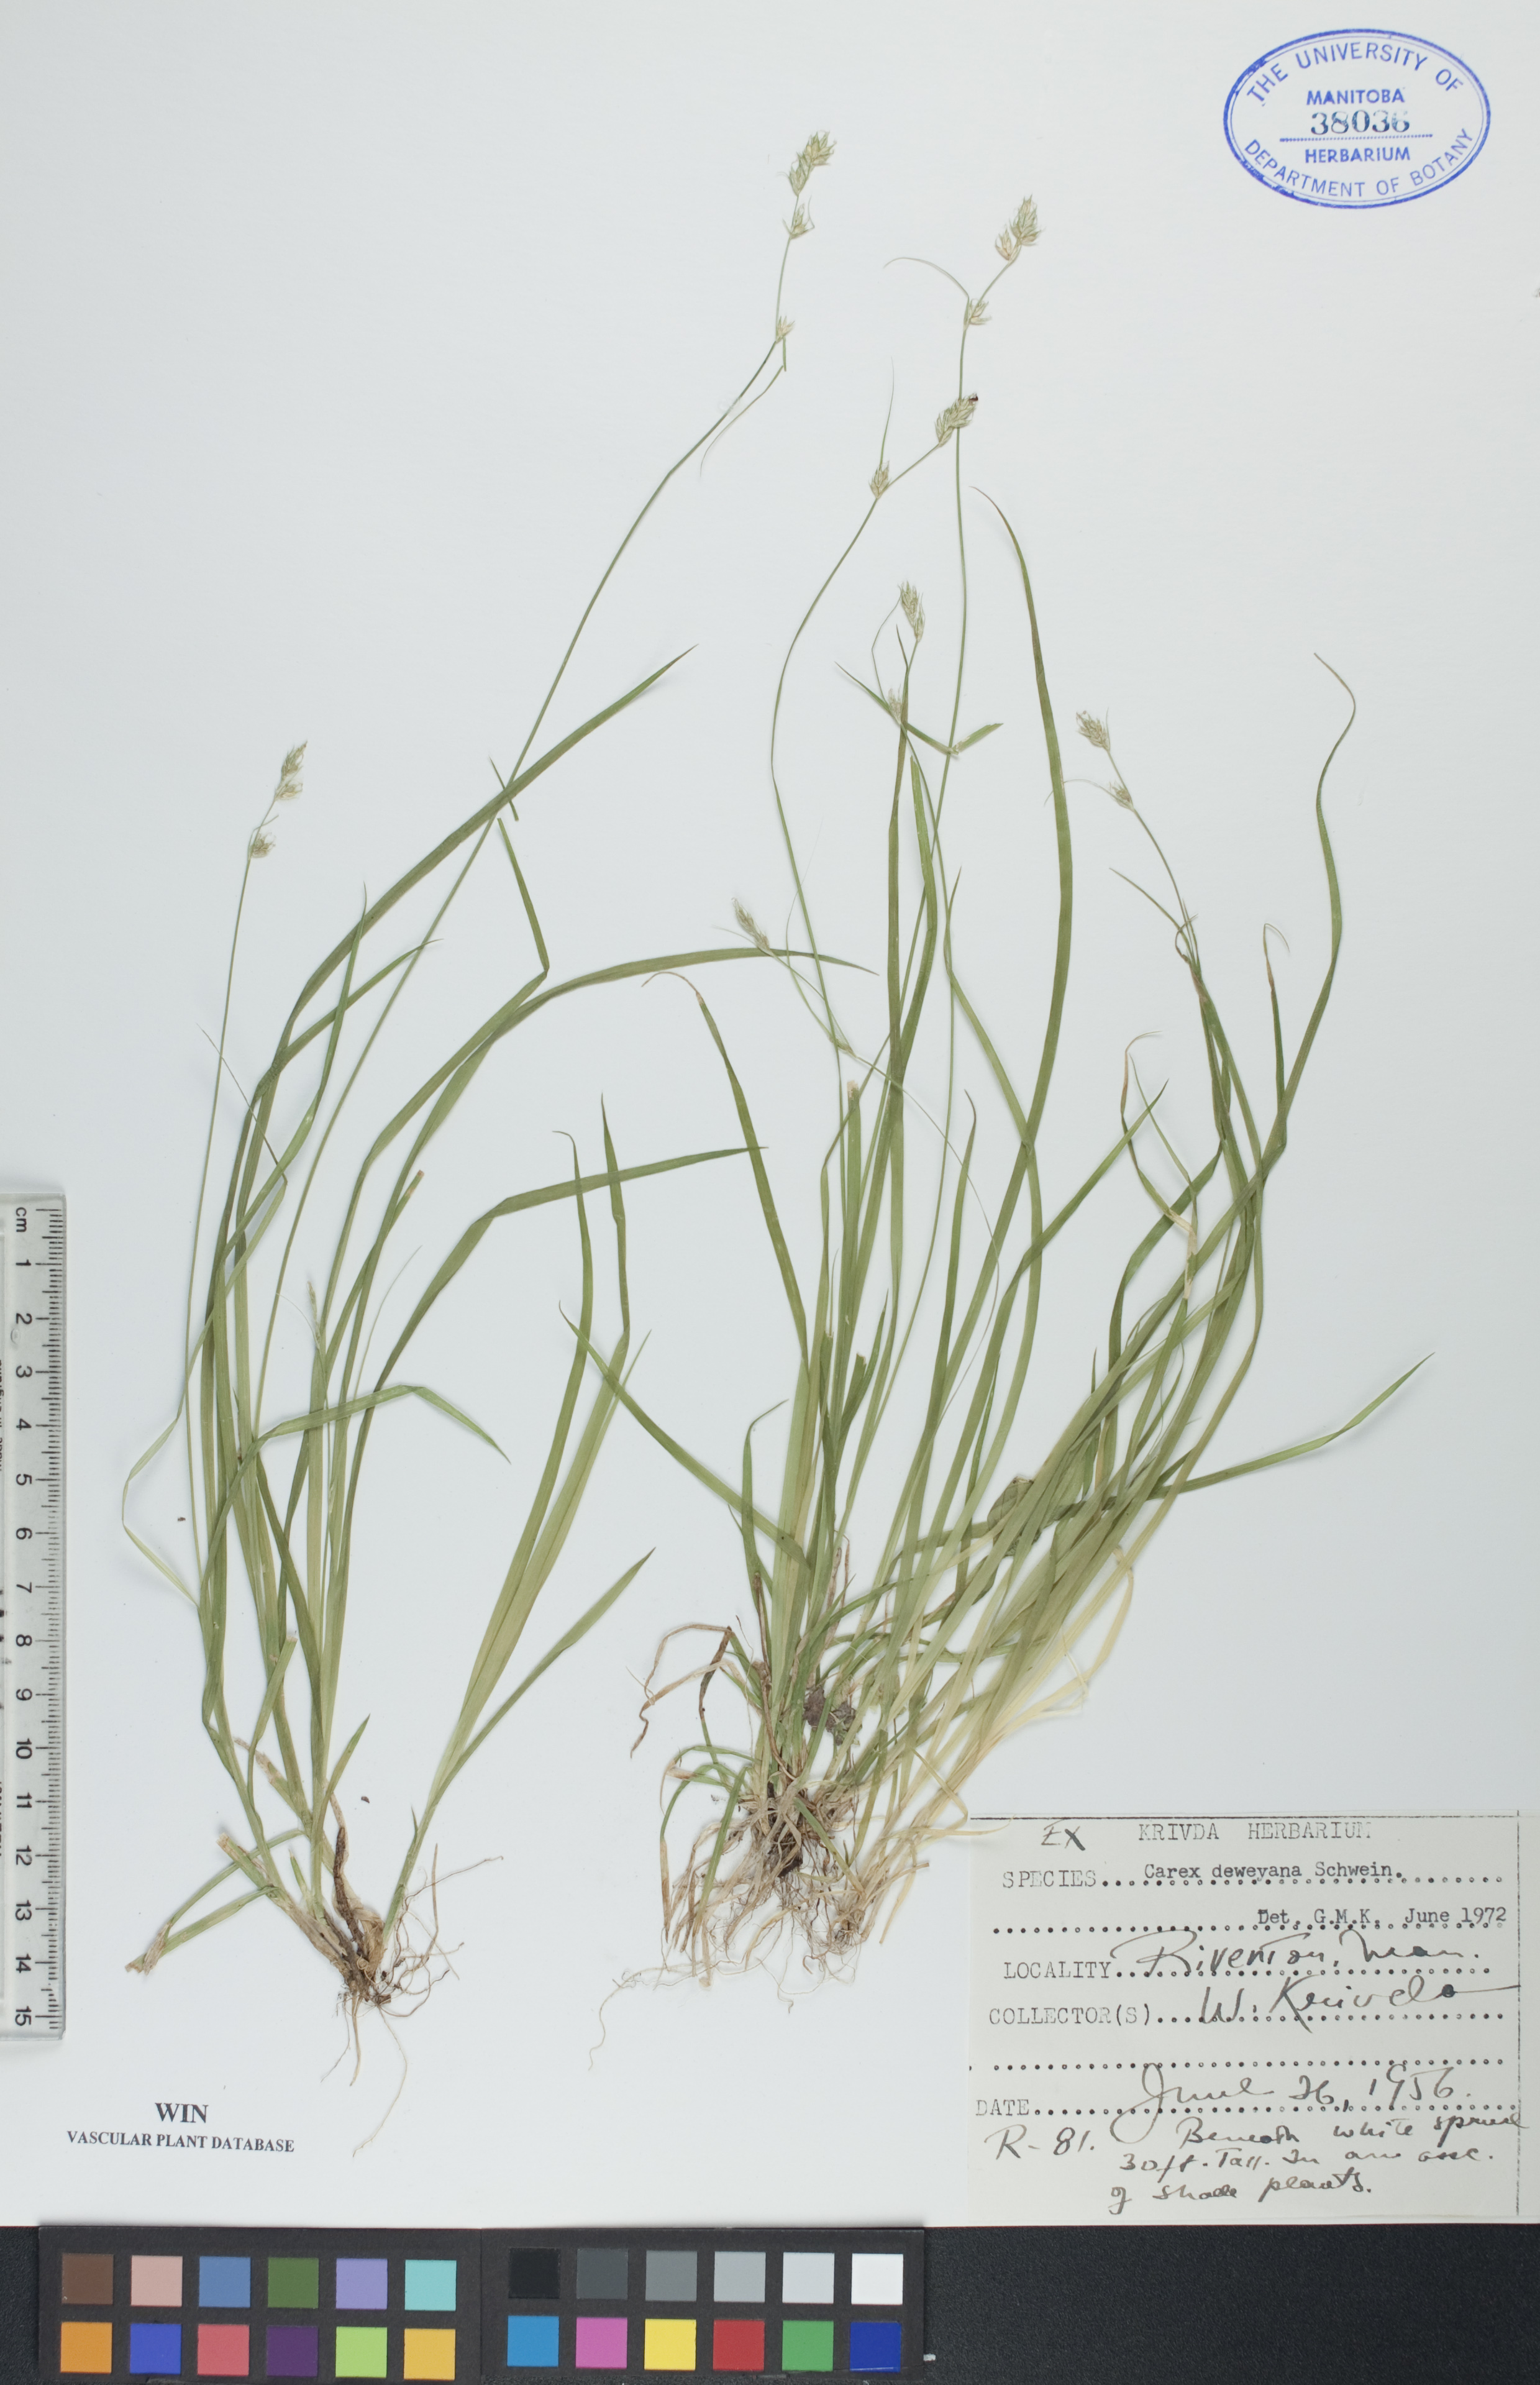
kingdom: Plantae
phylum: Tracheophyta
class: Liliopsida
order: Poales
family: Cyperaceae
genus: Carex
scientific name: Carex deweyana
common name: Dewey's sedge
